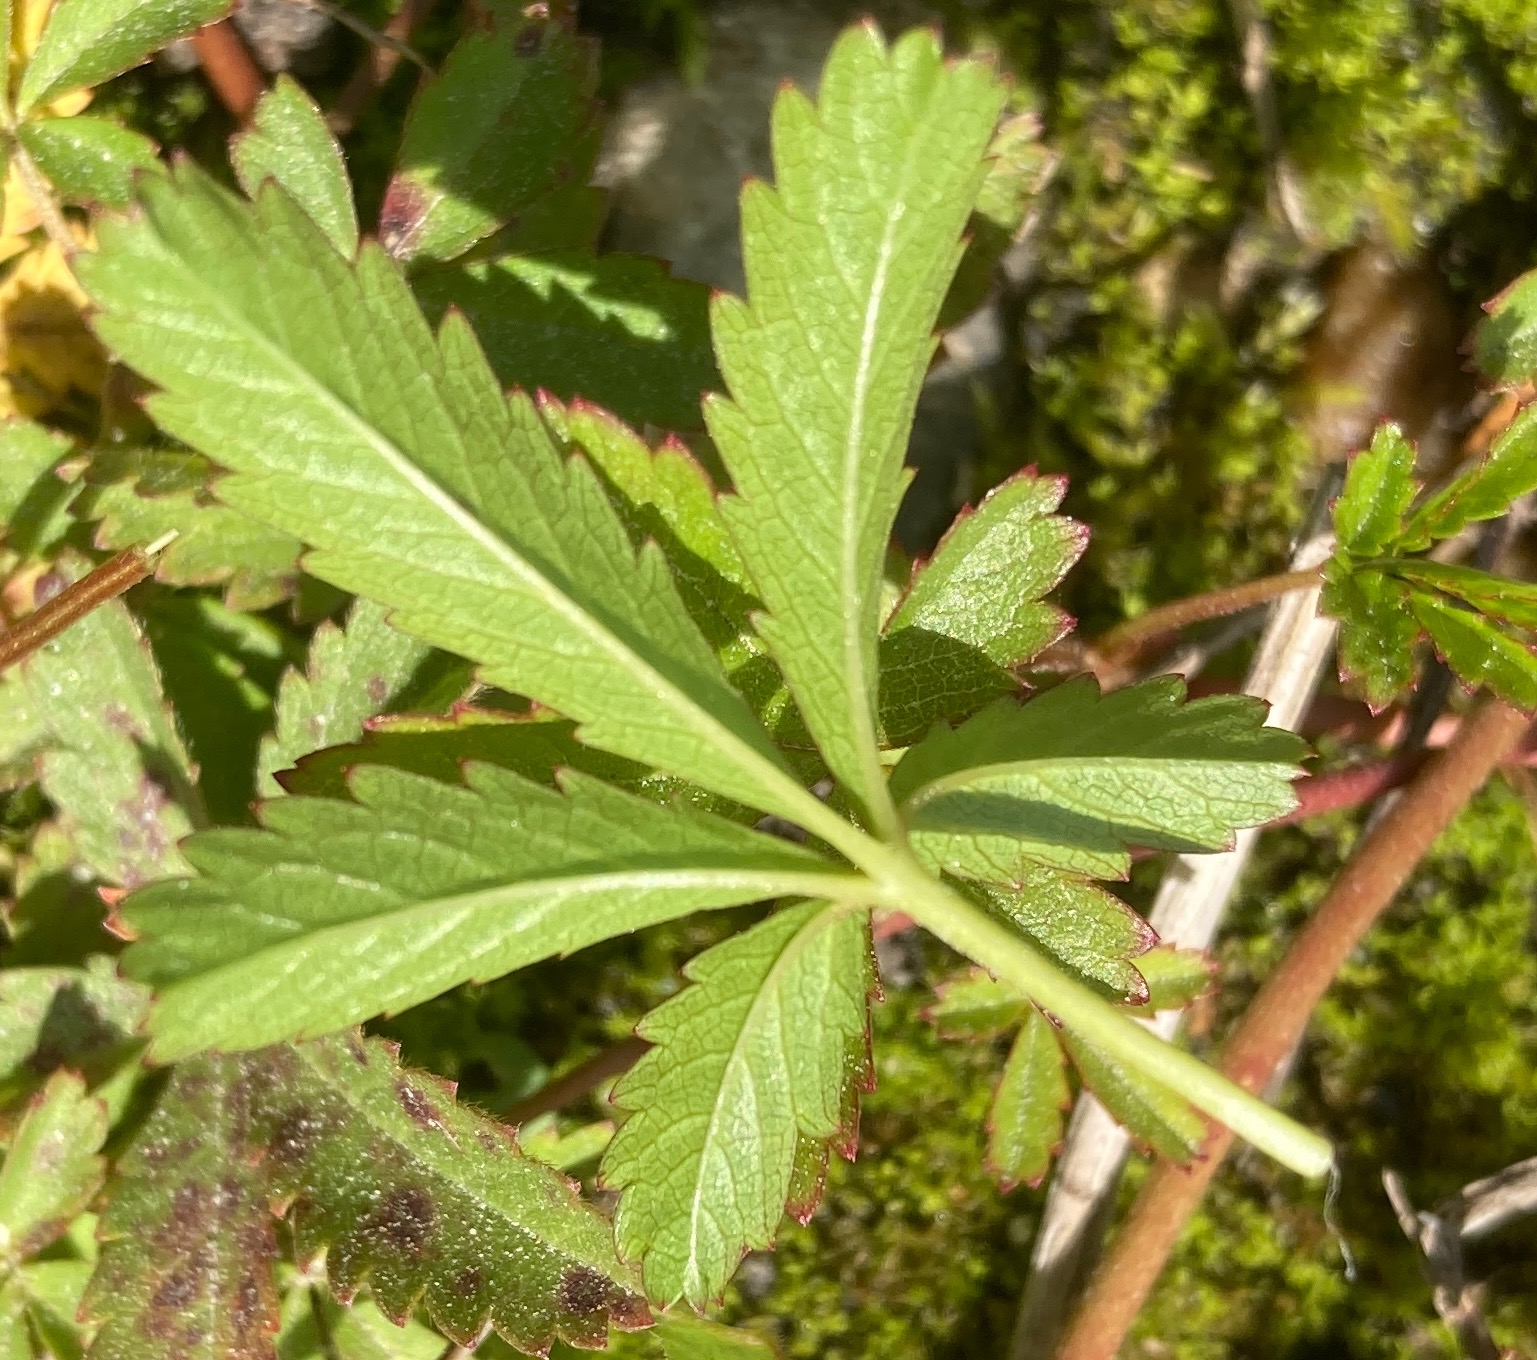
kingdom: Plantae
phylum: Tracheophyta
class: Magnoliopsida
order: Rosales
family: Rosaceae
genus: Potentilla
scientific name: Potentilla reptans
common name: Krybende potentil
